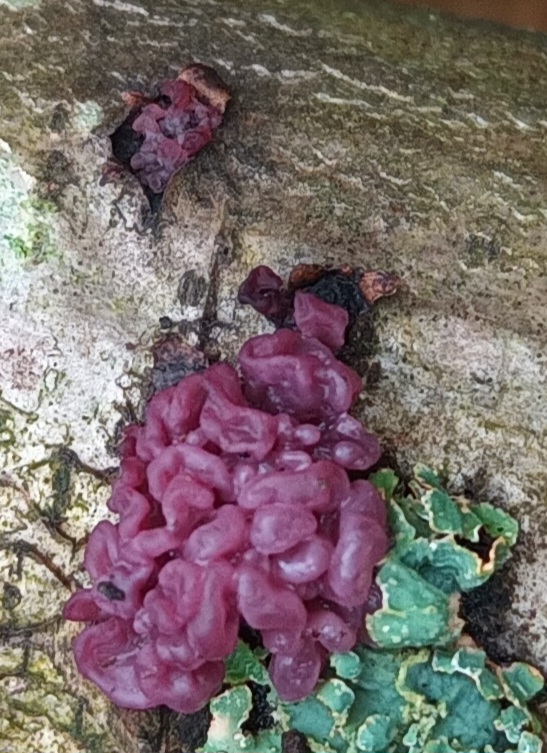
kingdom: Fungi
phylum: Ascomycota
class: Leotiomycetes
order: Helotiales
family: Gelatinodiscaceae
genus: Ascocoryne
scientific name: Ascocoryne sarcoides
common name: Rødlilla sejskive
